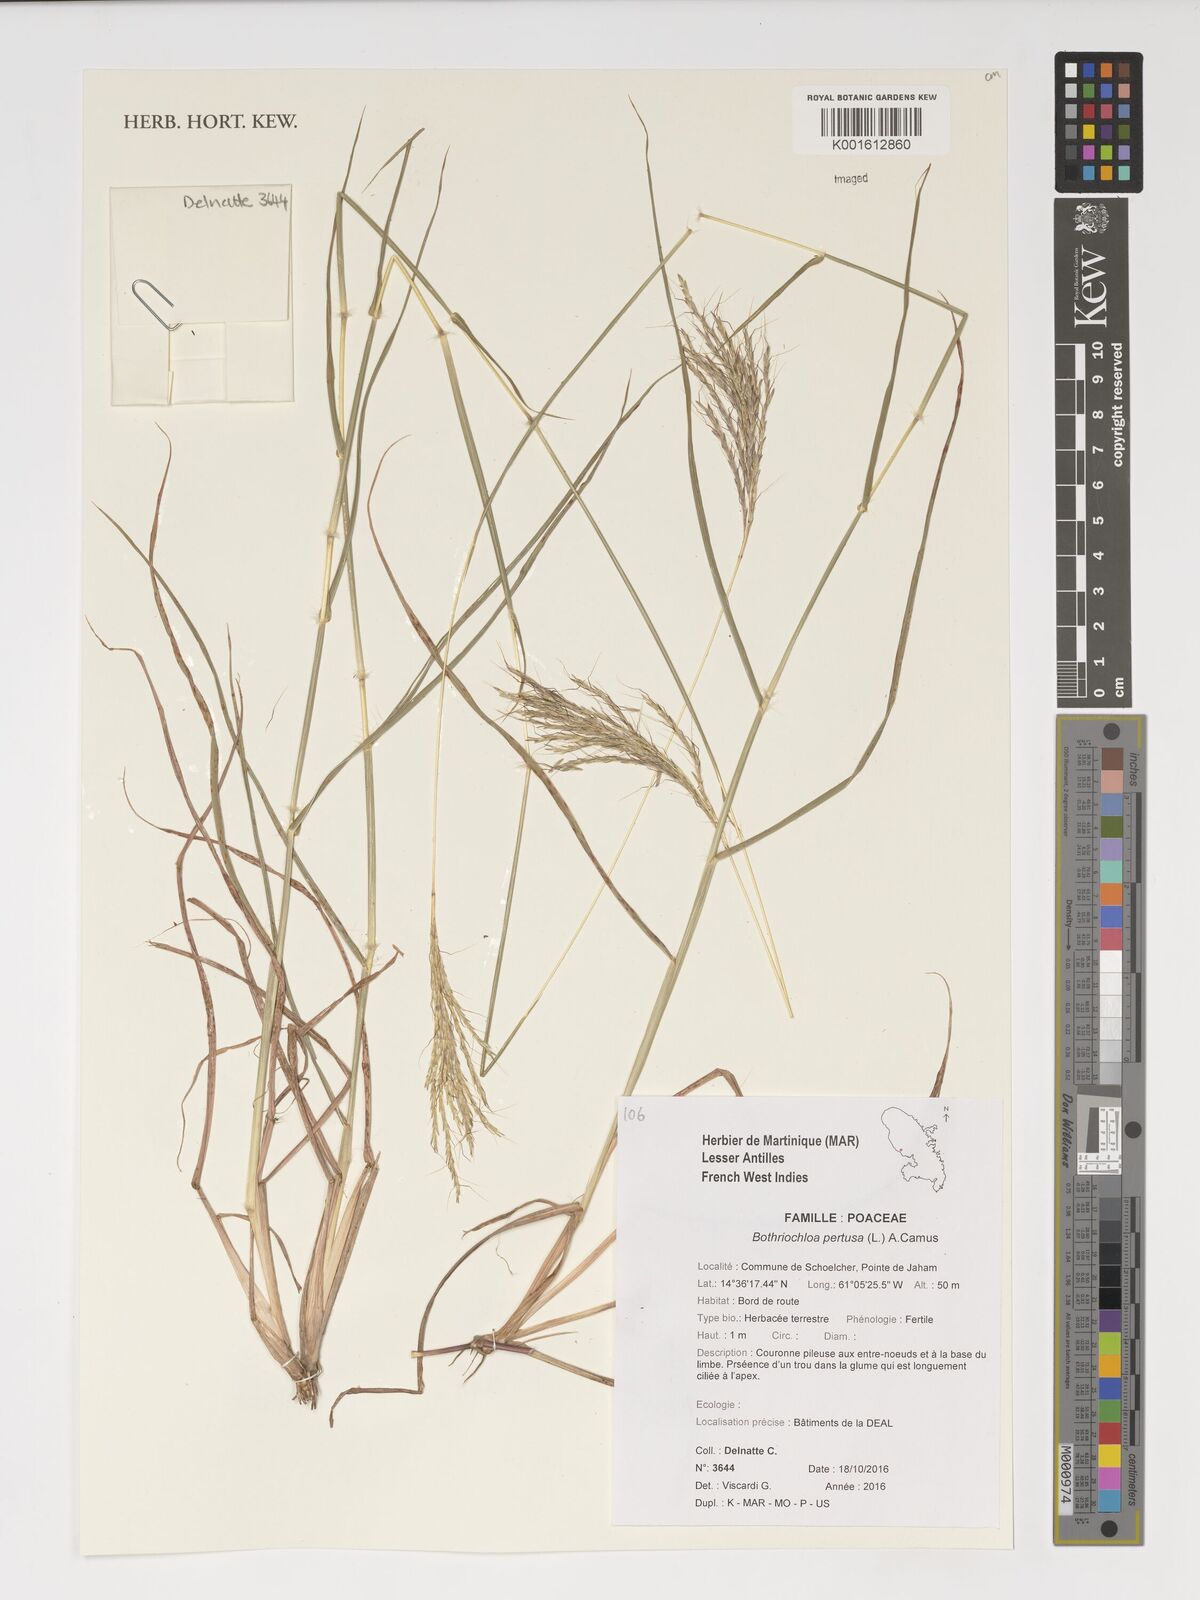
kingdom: Plantae
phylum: Tracheophyta
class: Liliopsida
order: Poales
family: Poaceae
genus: Bothriochloa
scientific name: Bothriochloa pertusa
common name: Pitted beardgrass
